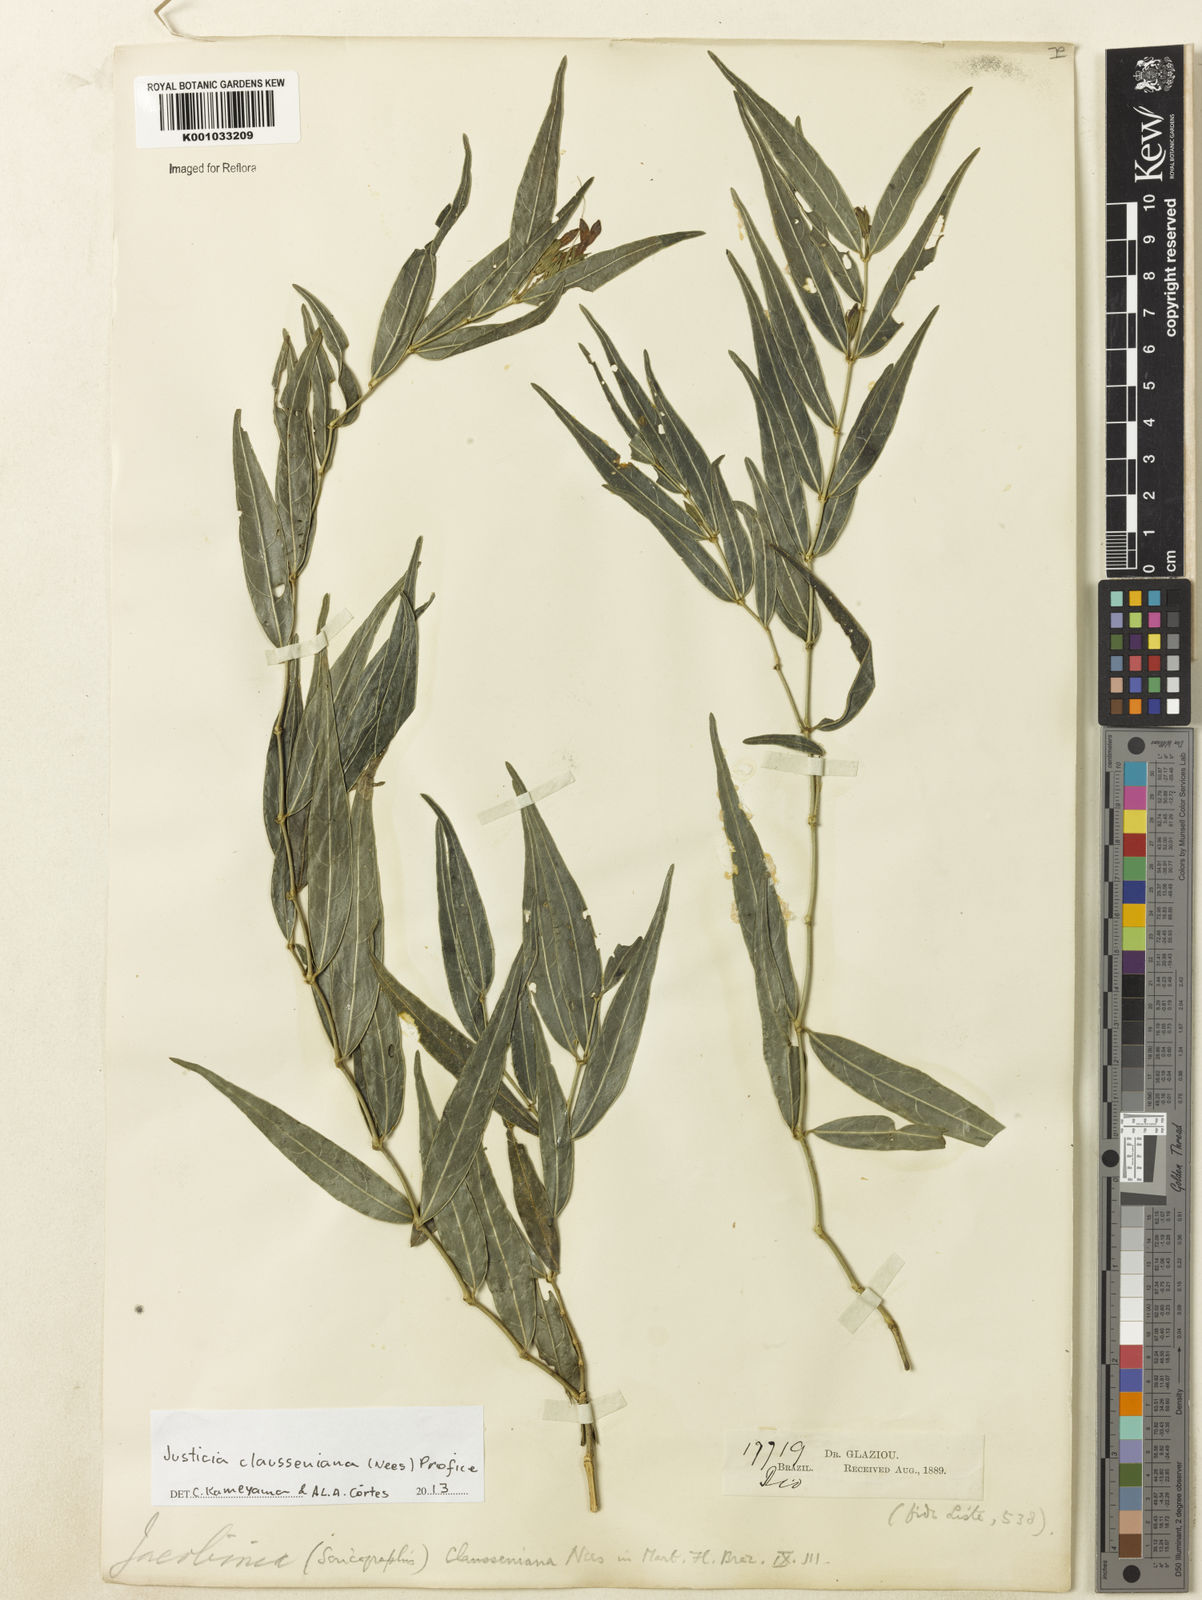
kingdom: Plantae
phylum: Tracheophyta
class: Magnoliopsida
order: Lamiales
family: Acanthaceae
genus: Justicia
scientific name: Justicia clausseniana
